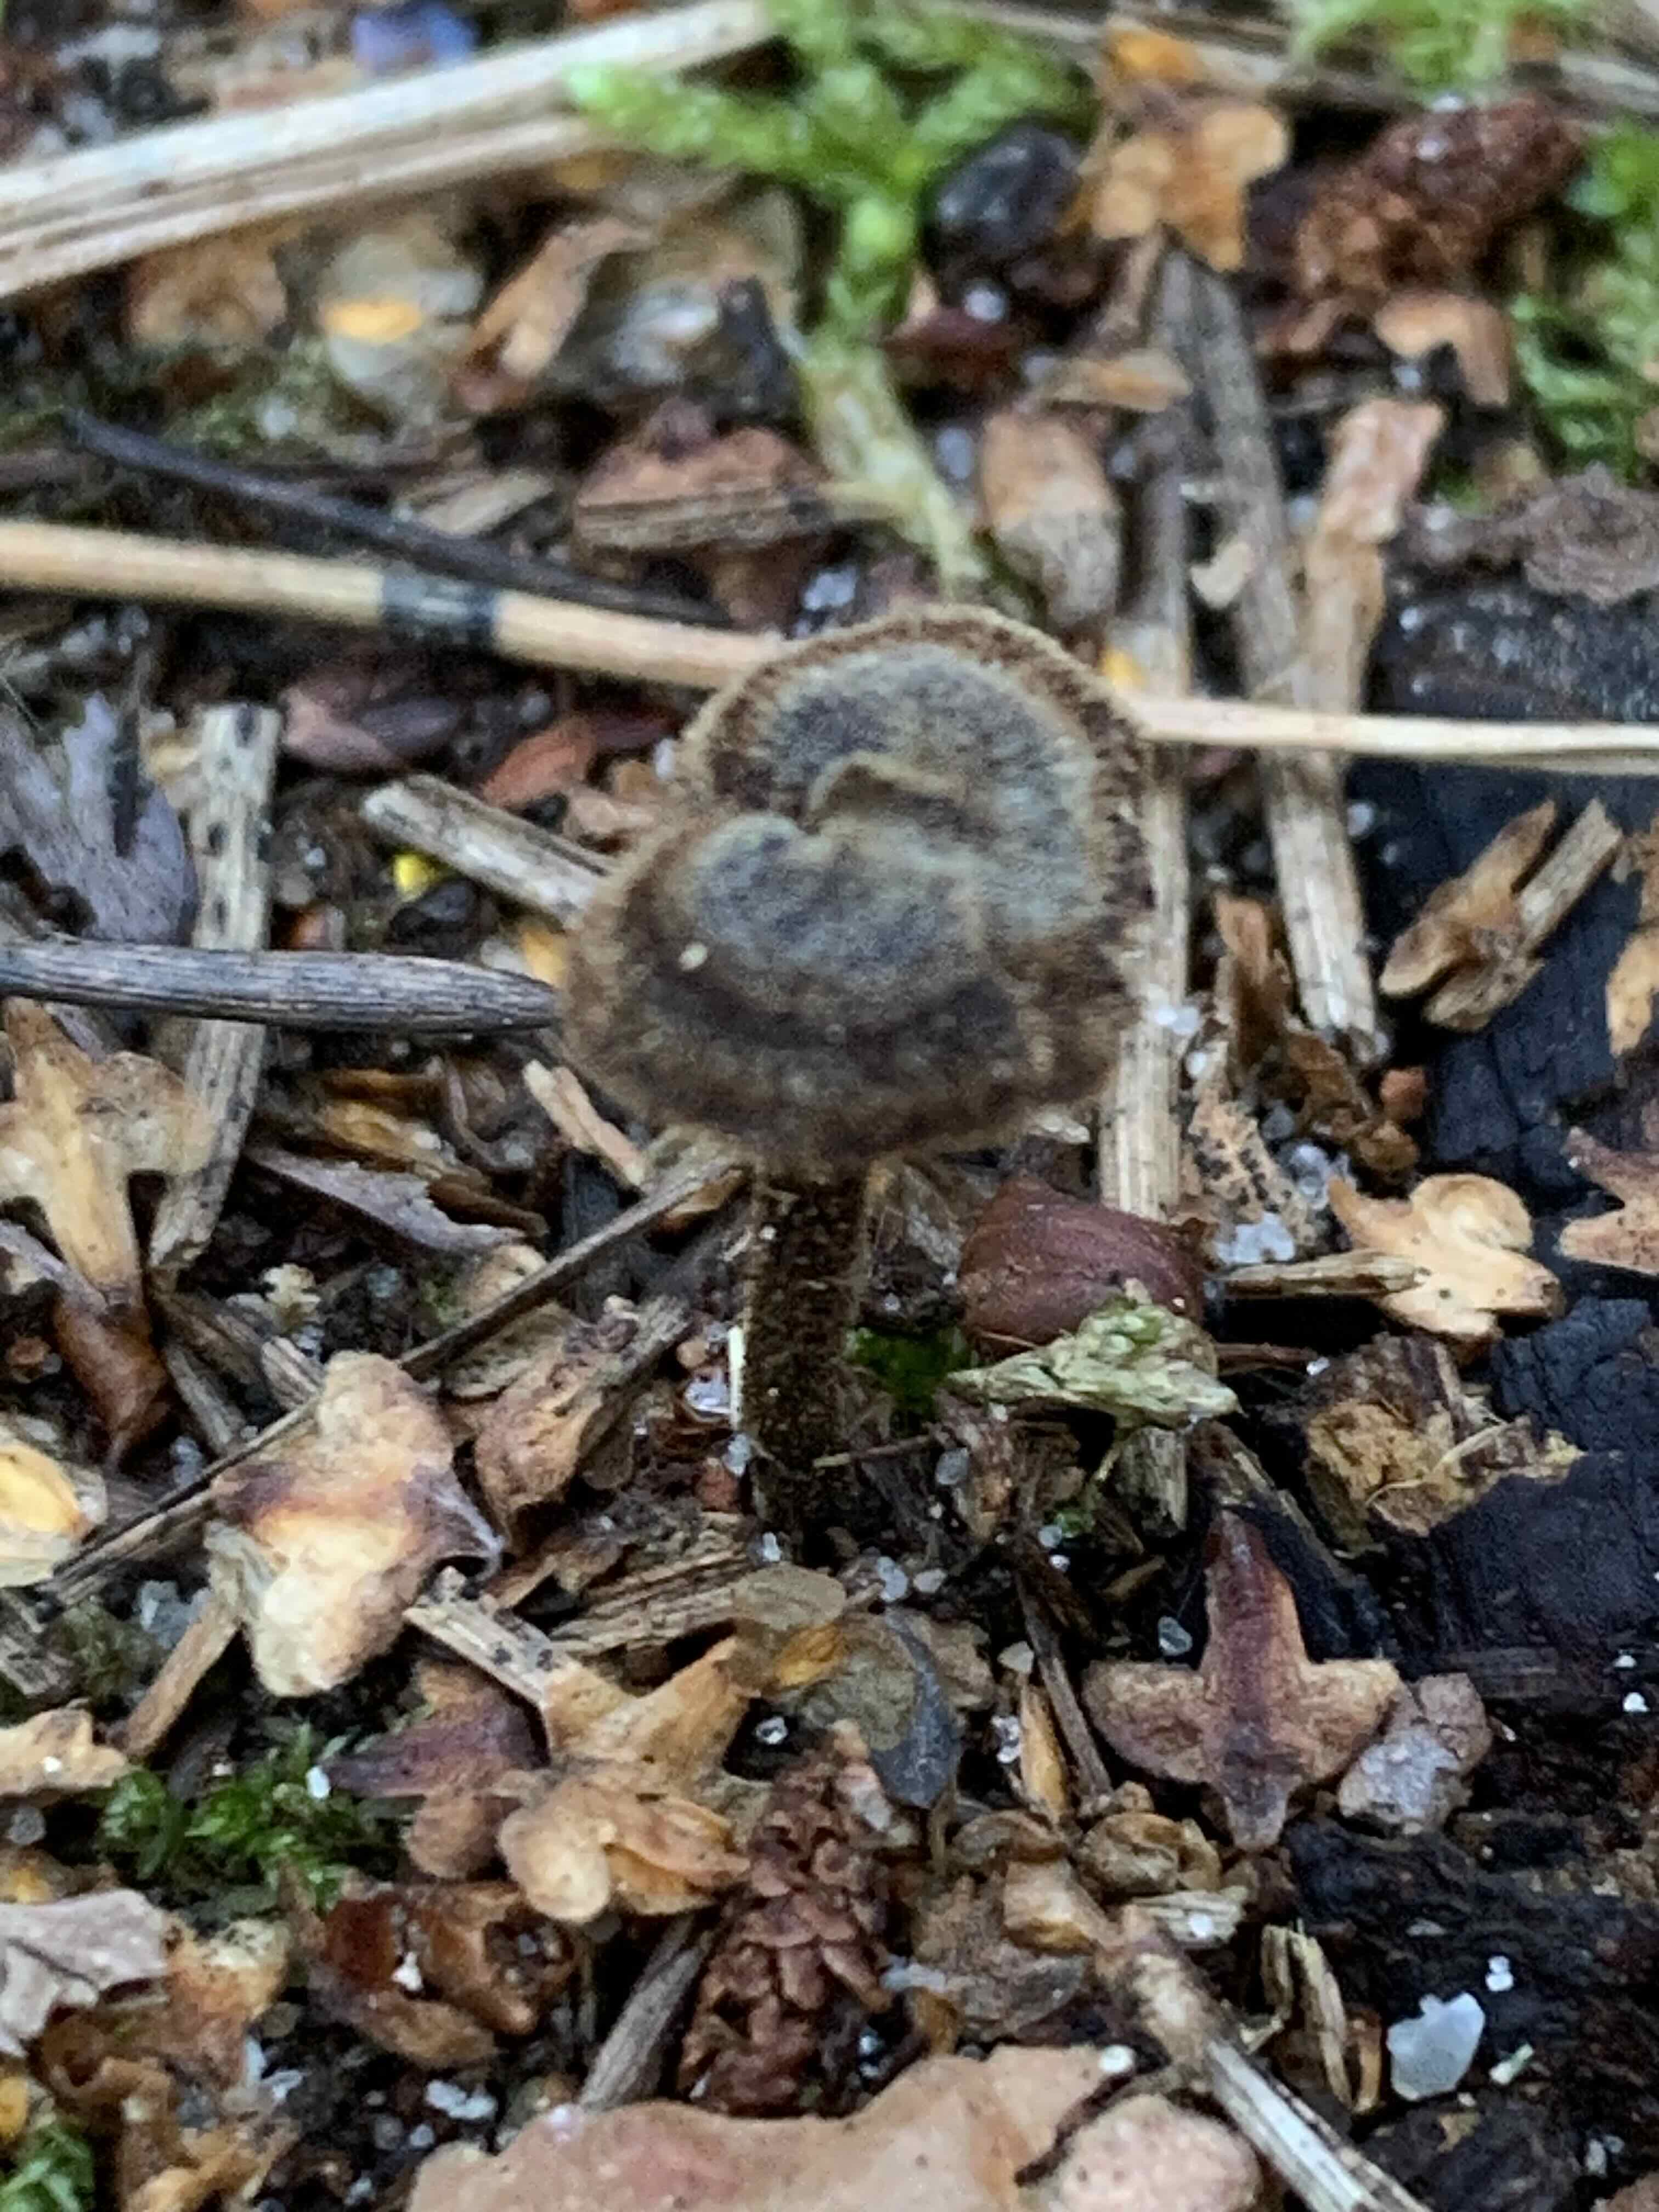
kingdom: Fungi
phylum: Basidiomycota
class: Agaricomycetes
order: Russulales
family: Auriscalpiaceae
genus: Auriscalpium
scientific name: Auriscalpium vulgare
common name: koglepigsvamp
